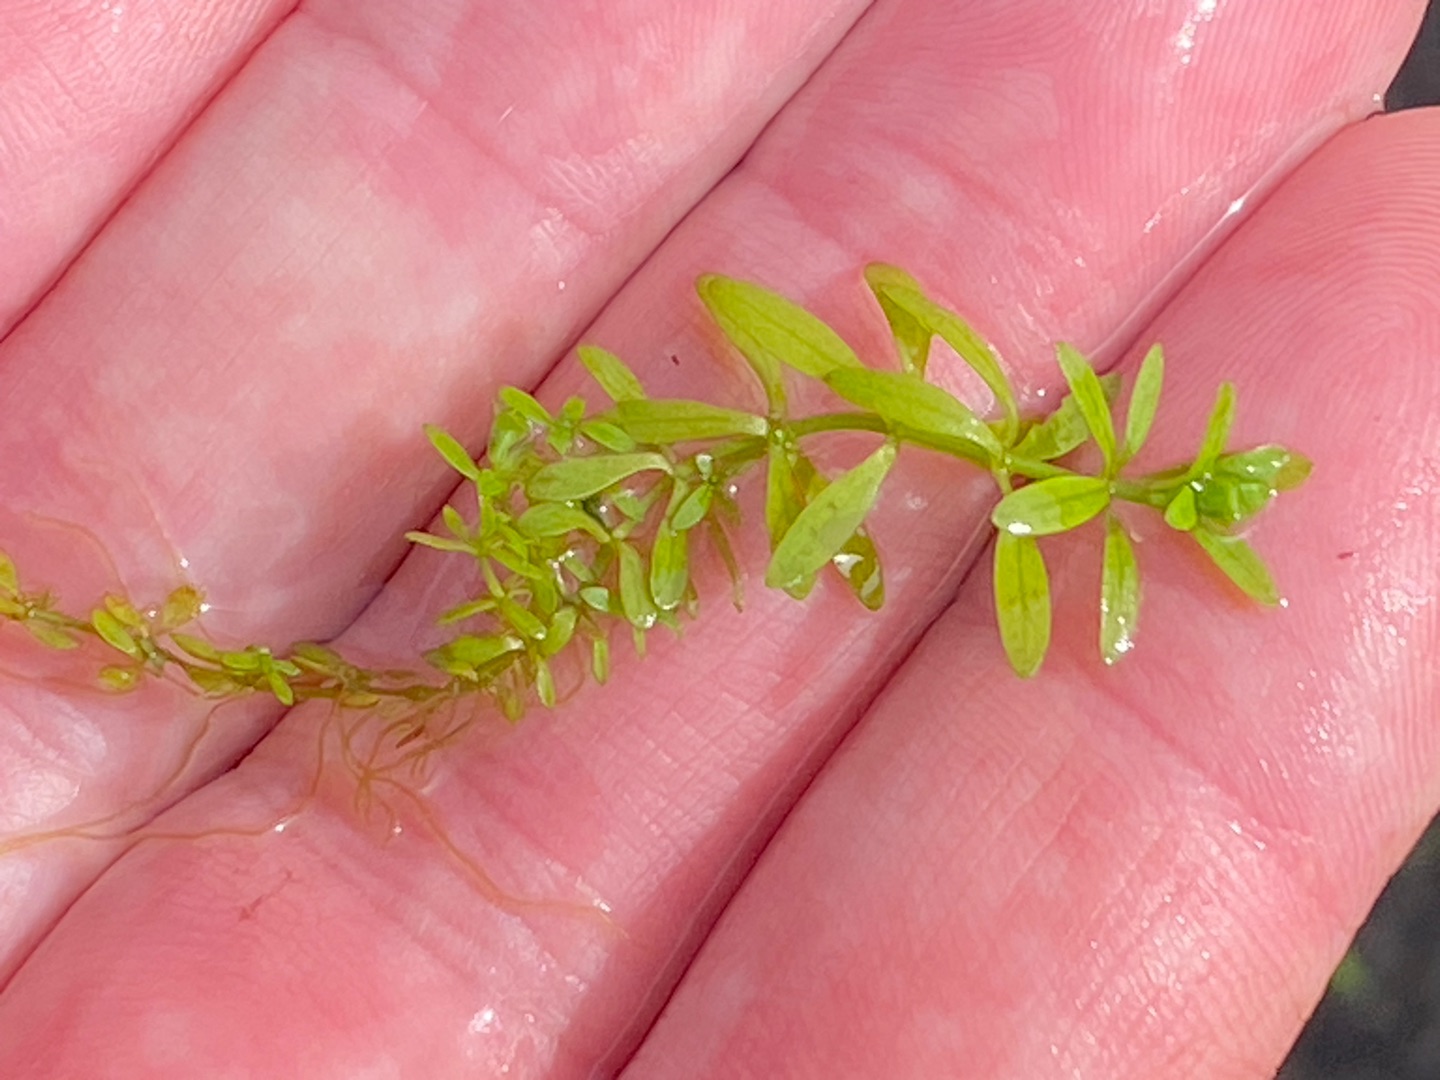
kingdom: Plantae
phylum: Tracheophyta
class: Magnoliopsida
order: Lamiales
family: Plantaginaceae
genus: Callitriche
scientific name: Callitriche
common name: Vandstjerneslægten
